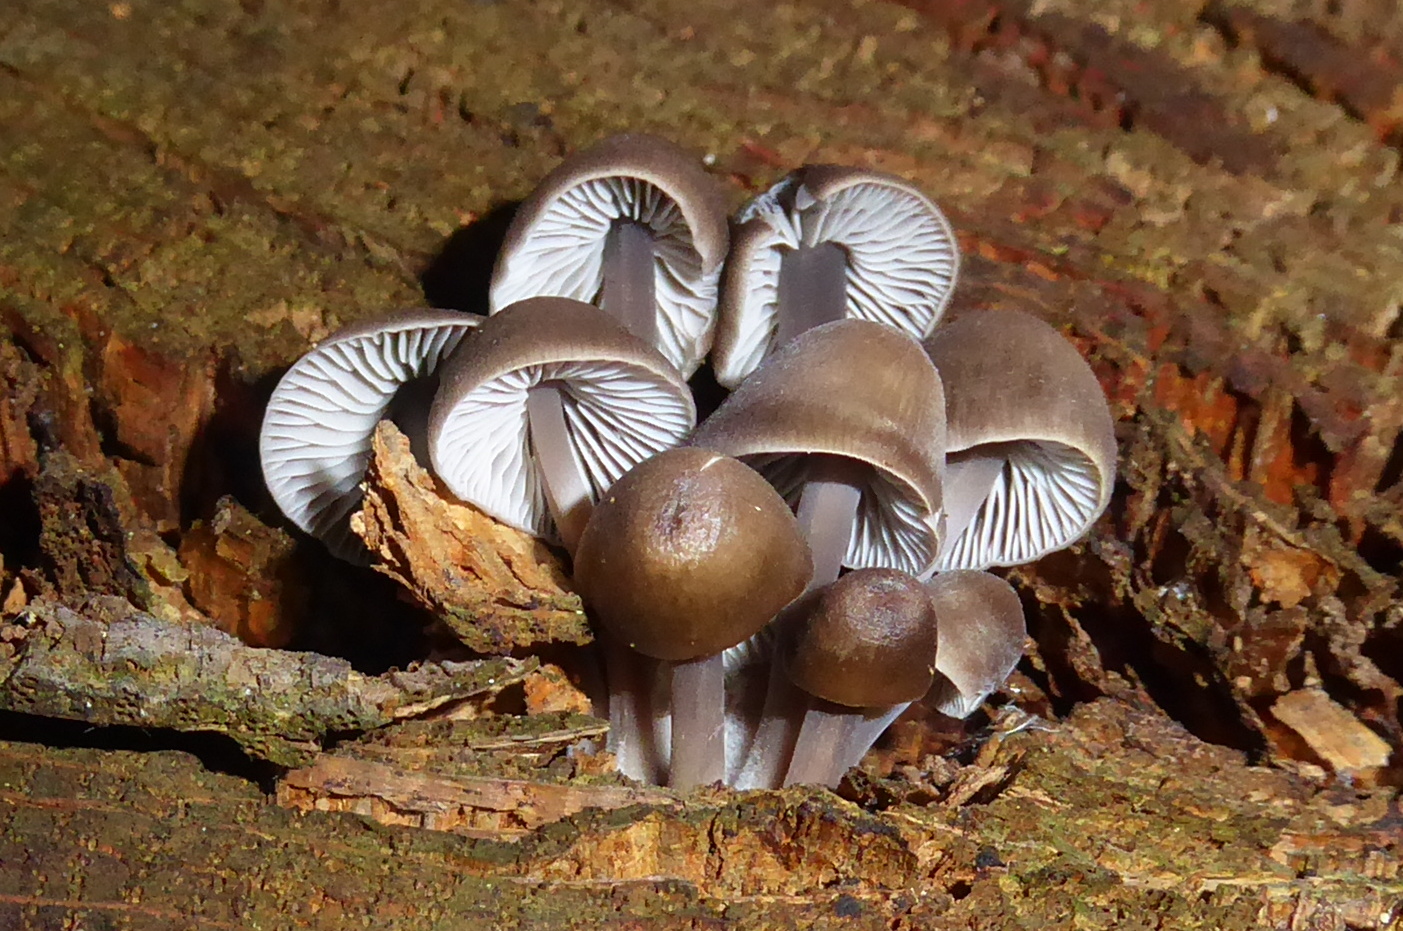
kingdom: Fungi
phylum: Basidiomycota
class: Agaricomycetes
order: Agaricales
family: Mycenaceae
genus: Mycena
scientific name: Mycena
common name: huesvamp
